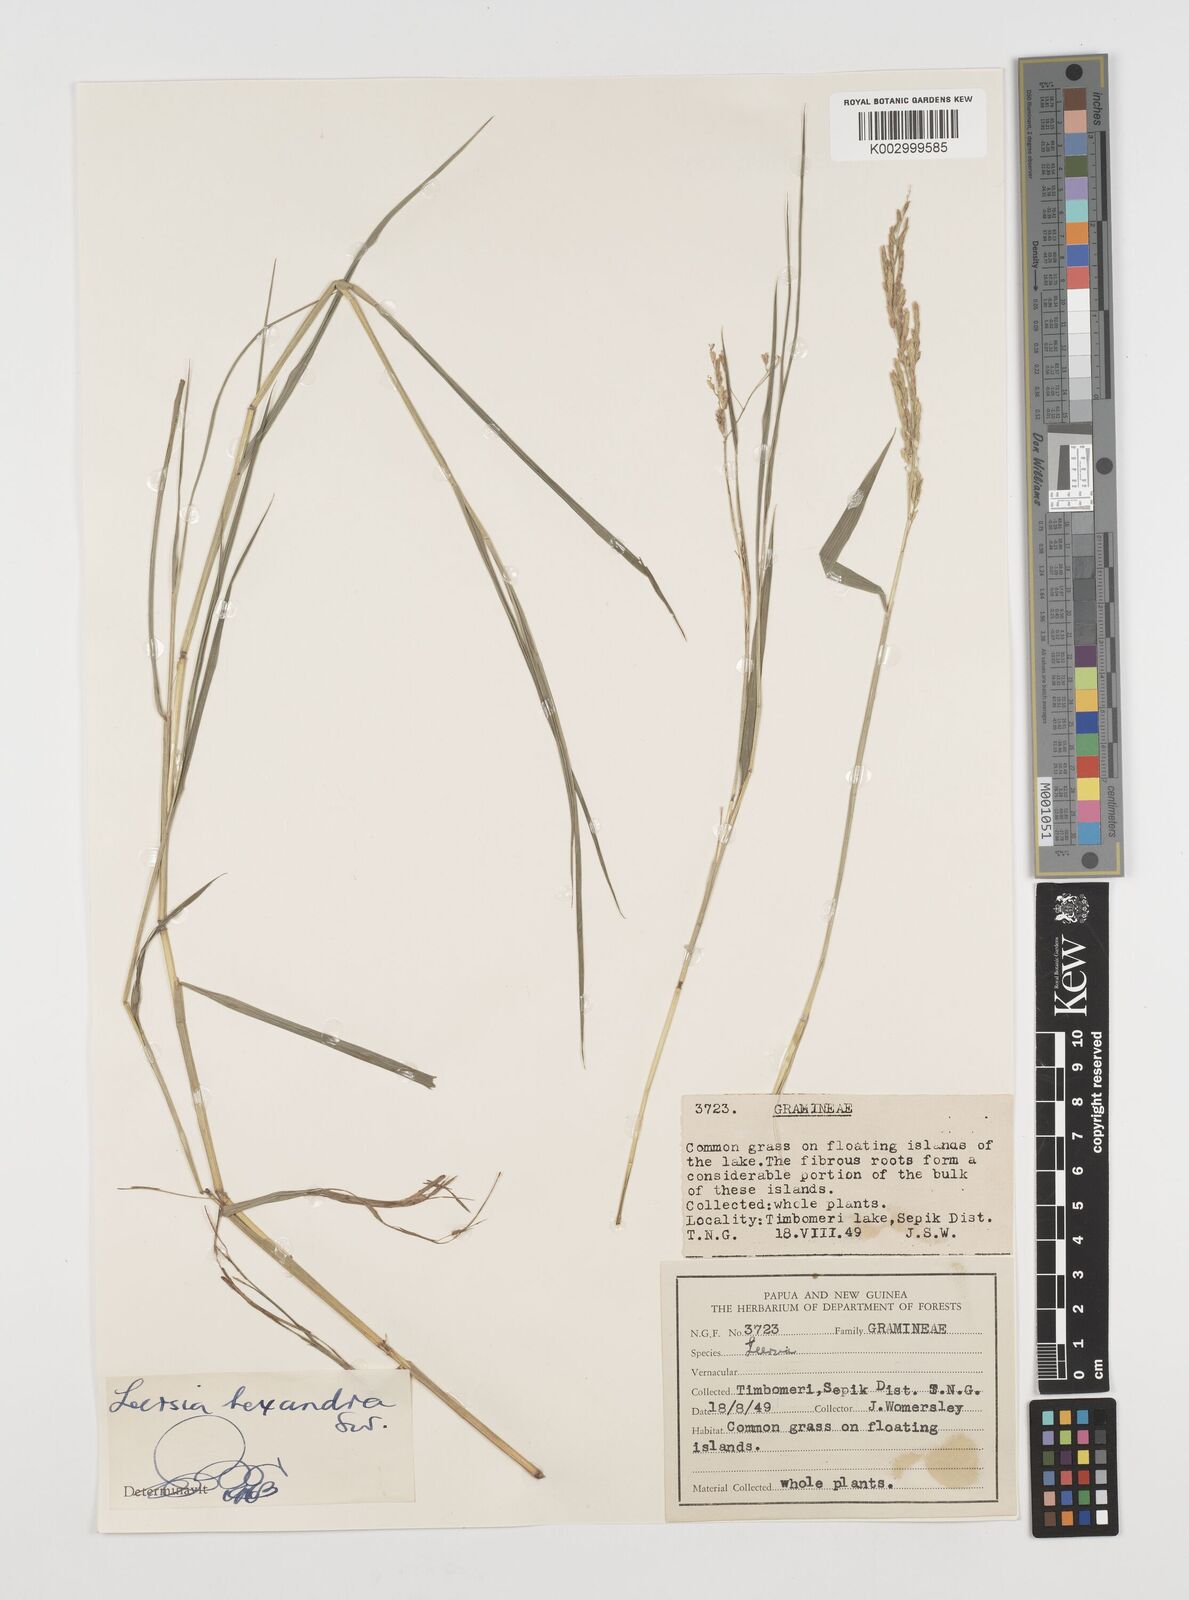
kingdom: Plantae
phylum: Tracheophyta
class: Liliopsida
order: Poales
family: Poaceae
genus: Leersia
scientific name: Leersia hexandra
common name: Southern cut grass
